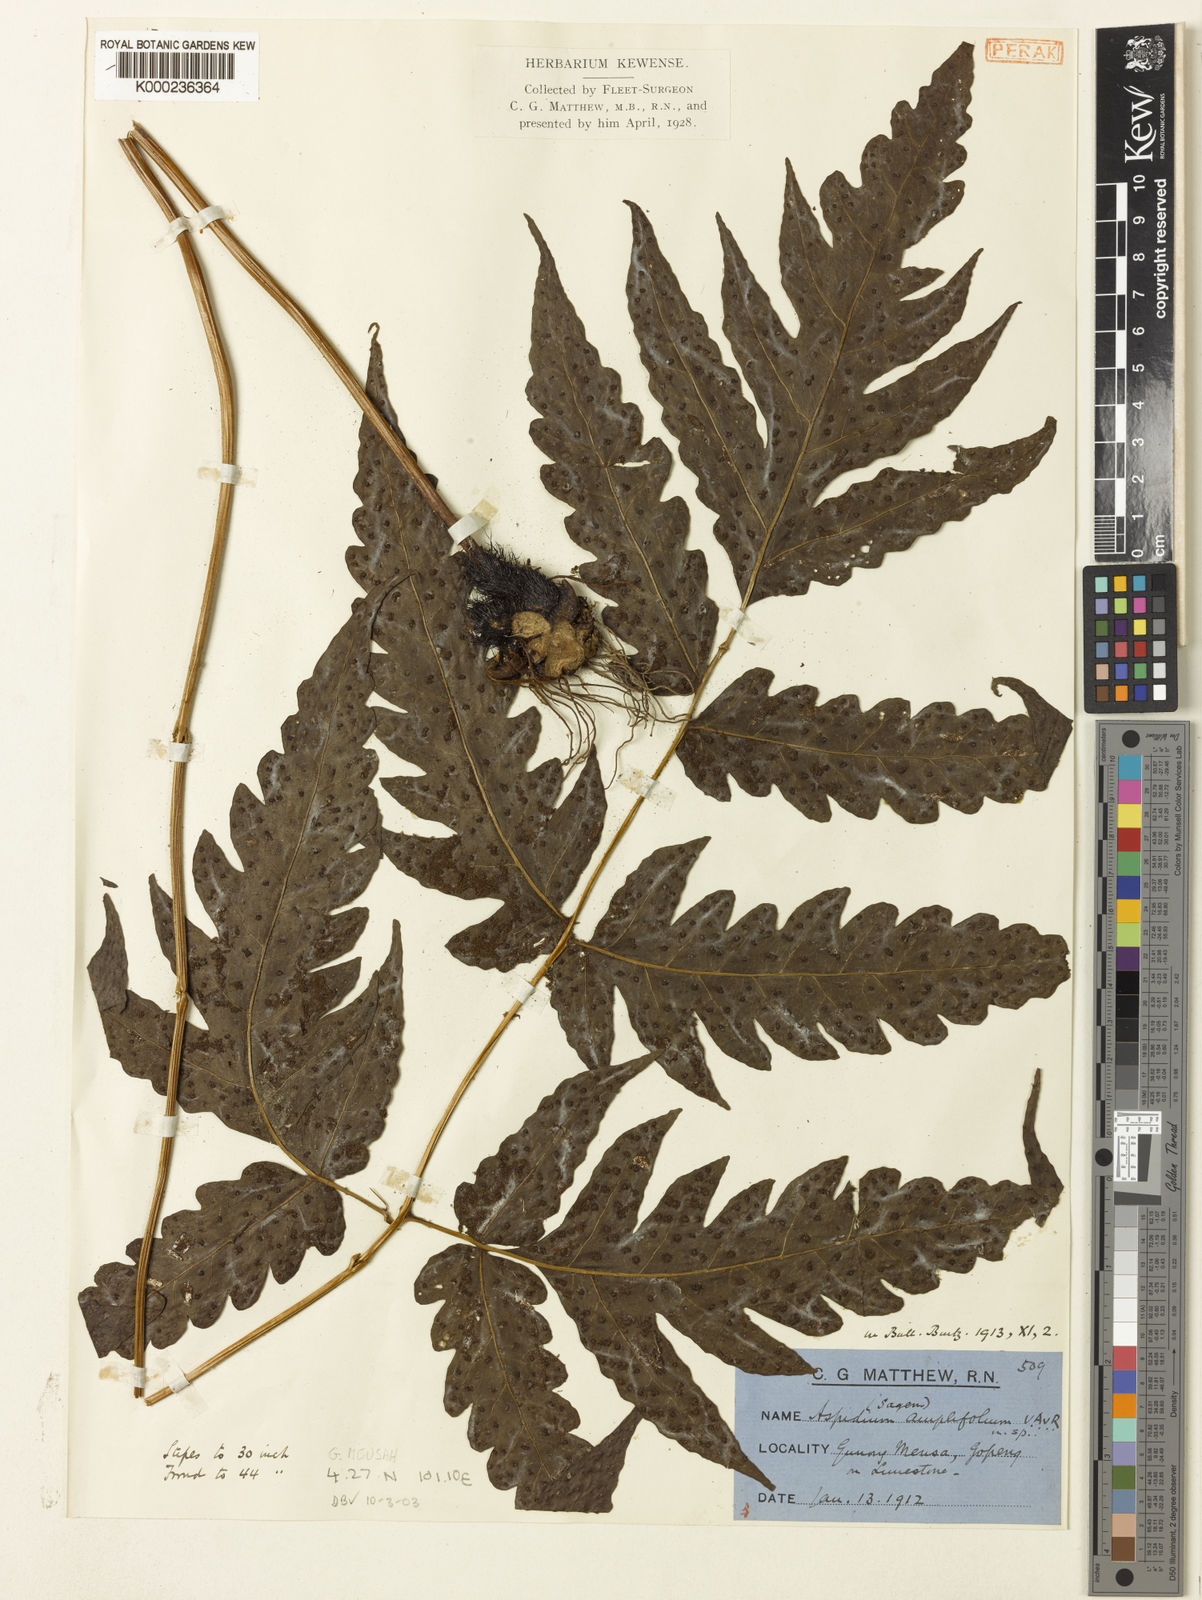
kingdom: Plantae
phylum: Tracheophyta
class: Polypodiopsida
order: Polypodiales
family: Tectariaceae
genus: Tectaria
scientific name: Tectaria keckii
